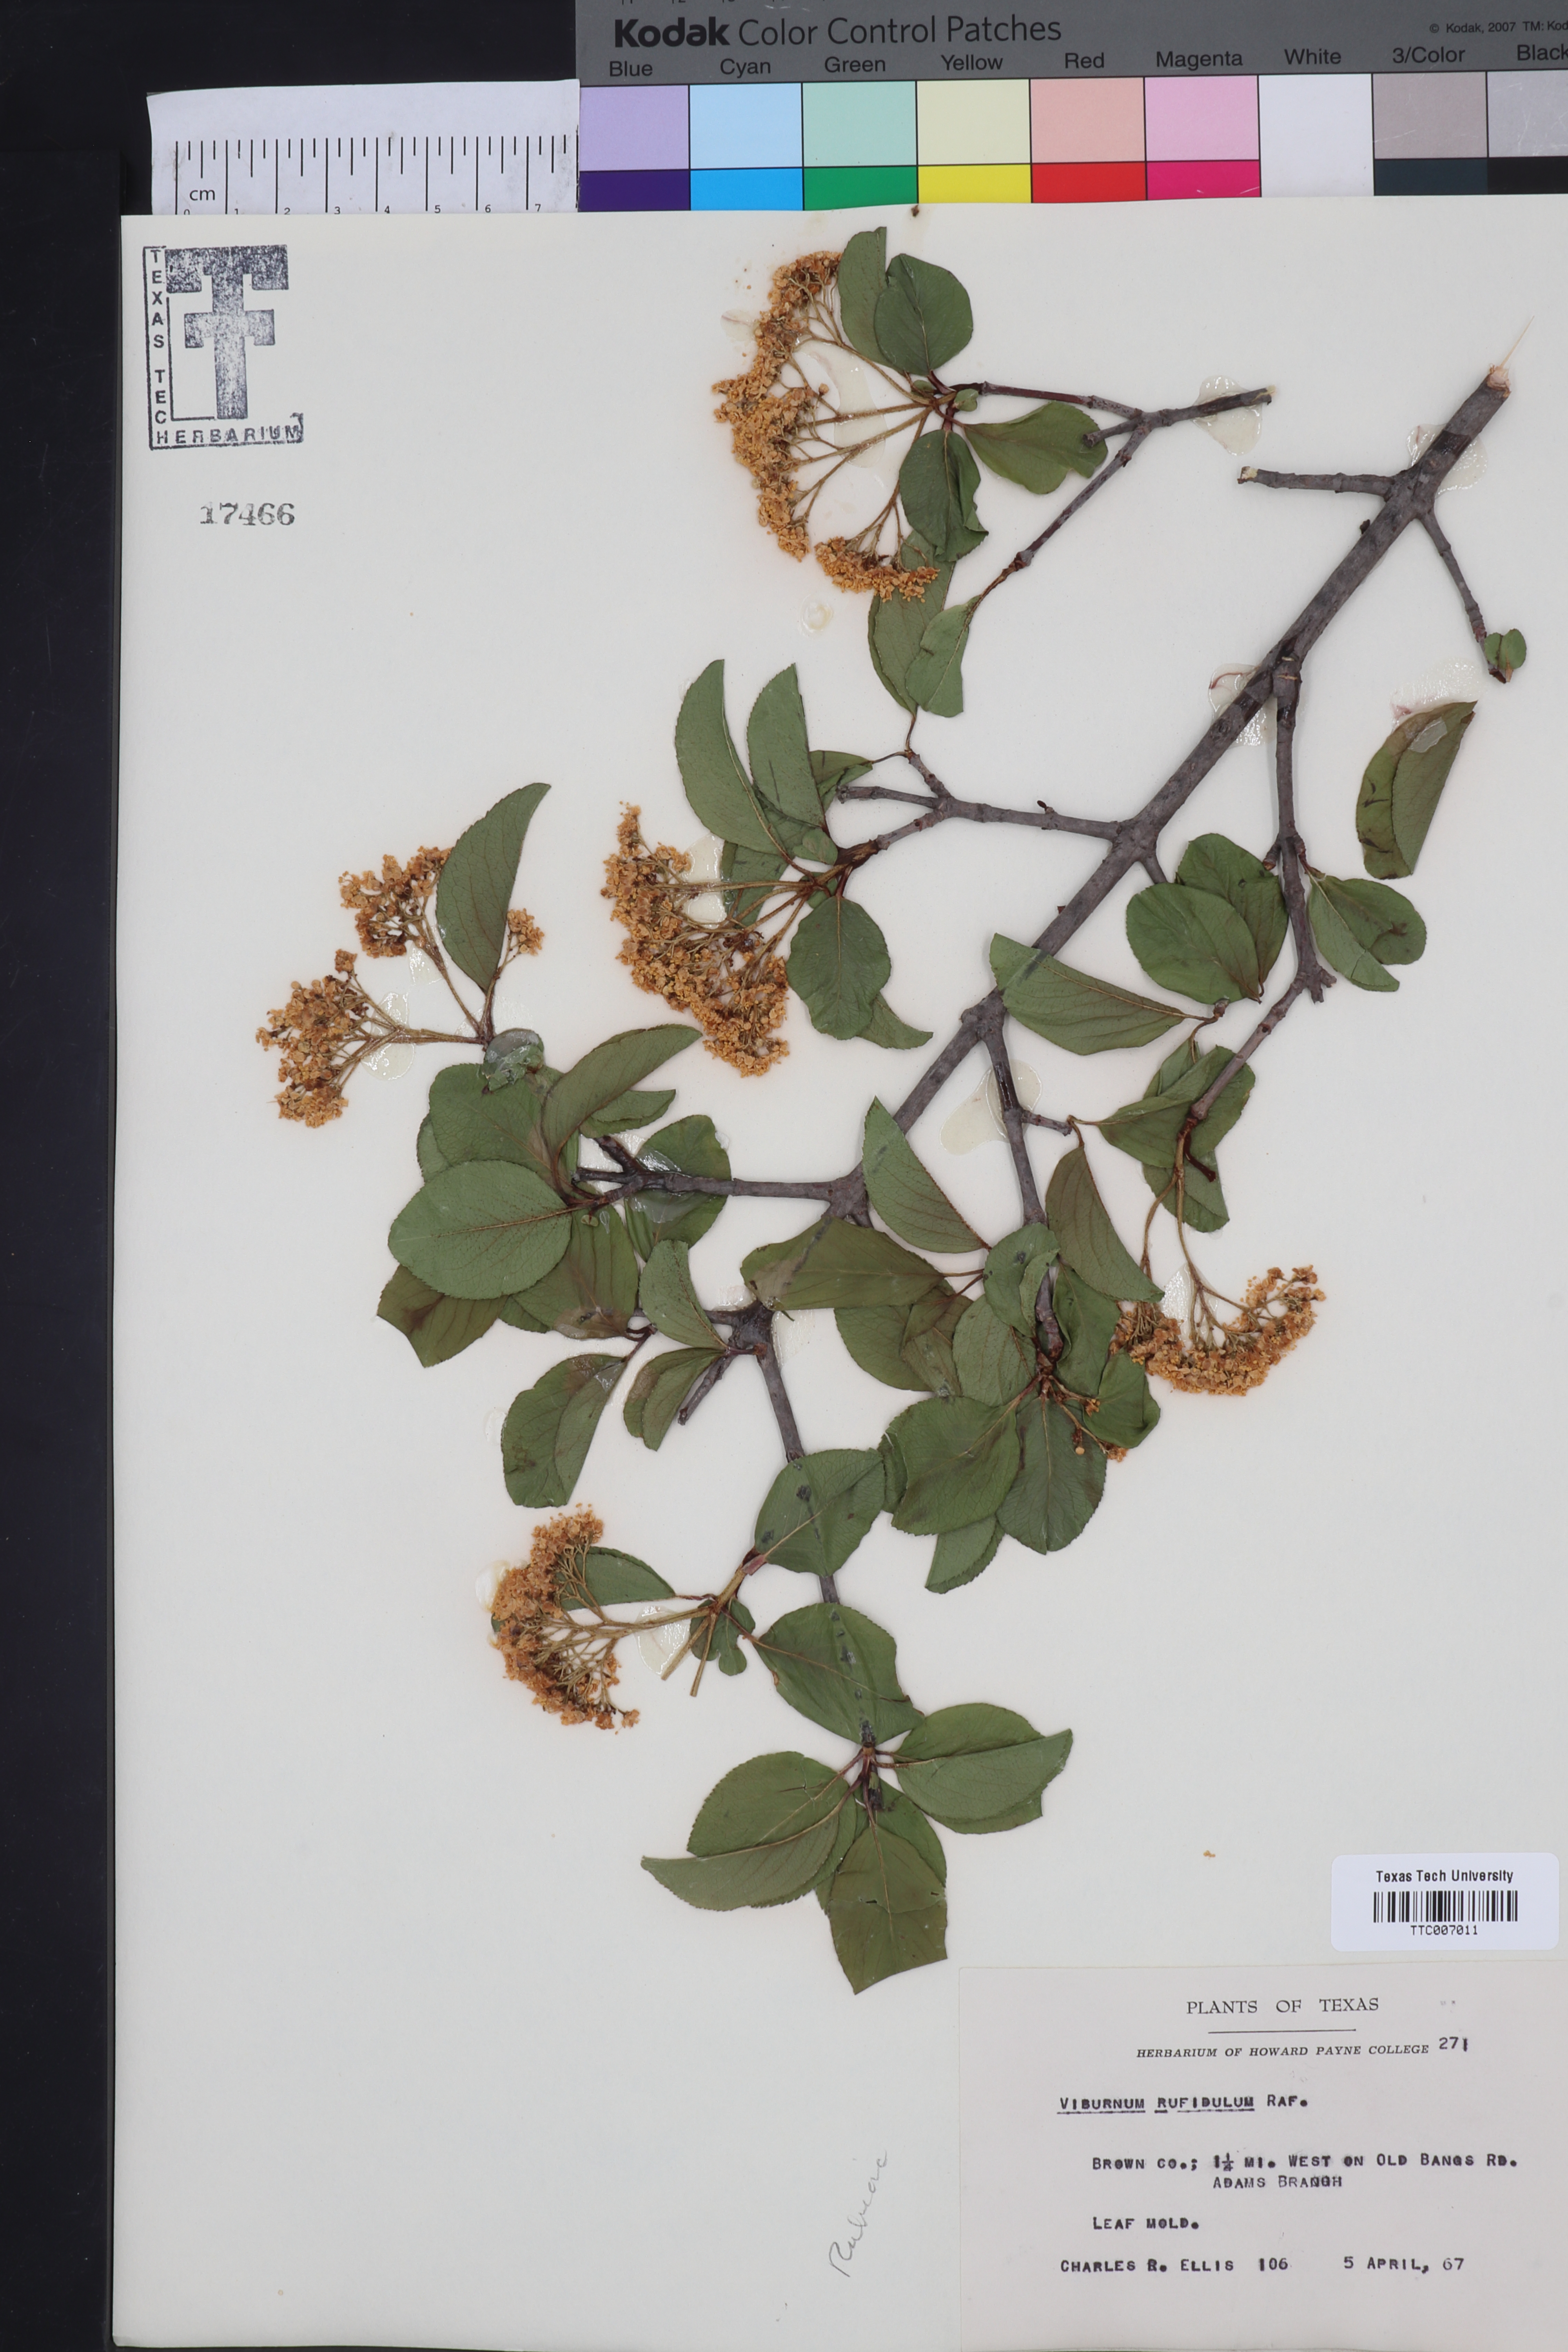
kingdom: Plantae
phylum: Tracheophyta
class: Magnoliopsida
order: Dipsacales
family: Viburnaceae
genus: Viburnum
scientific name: Viburnum rufidulum
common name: Blue haw
